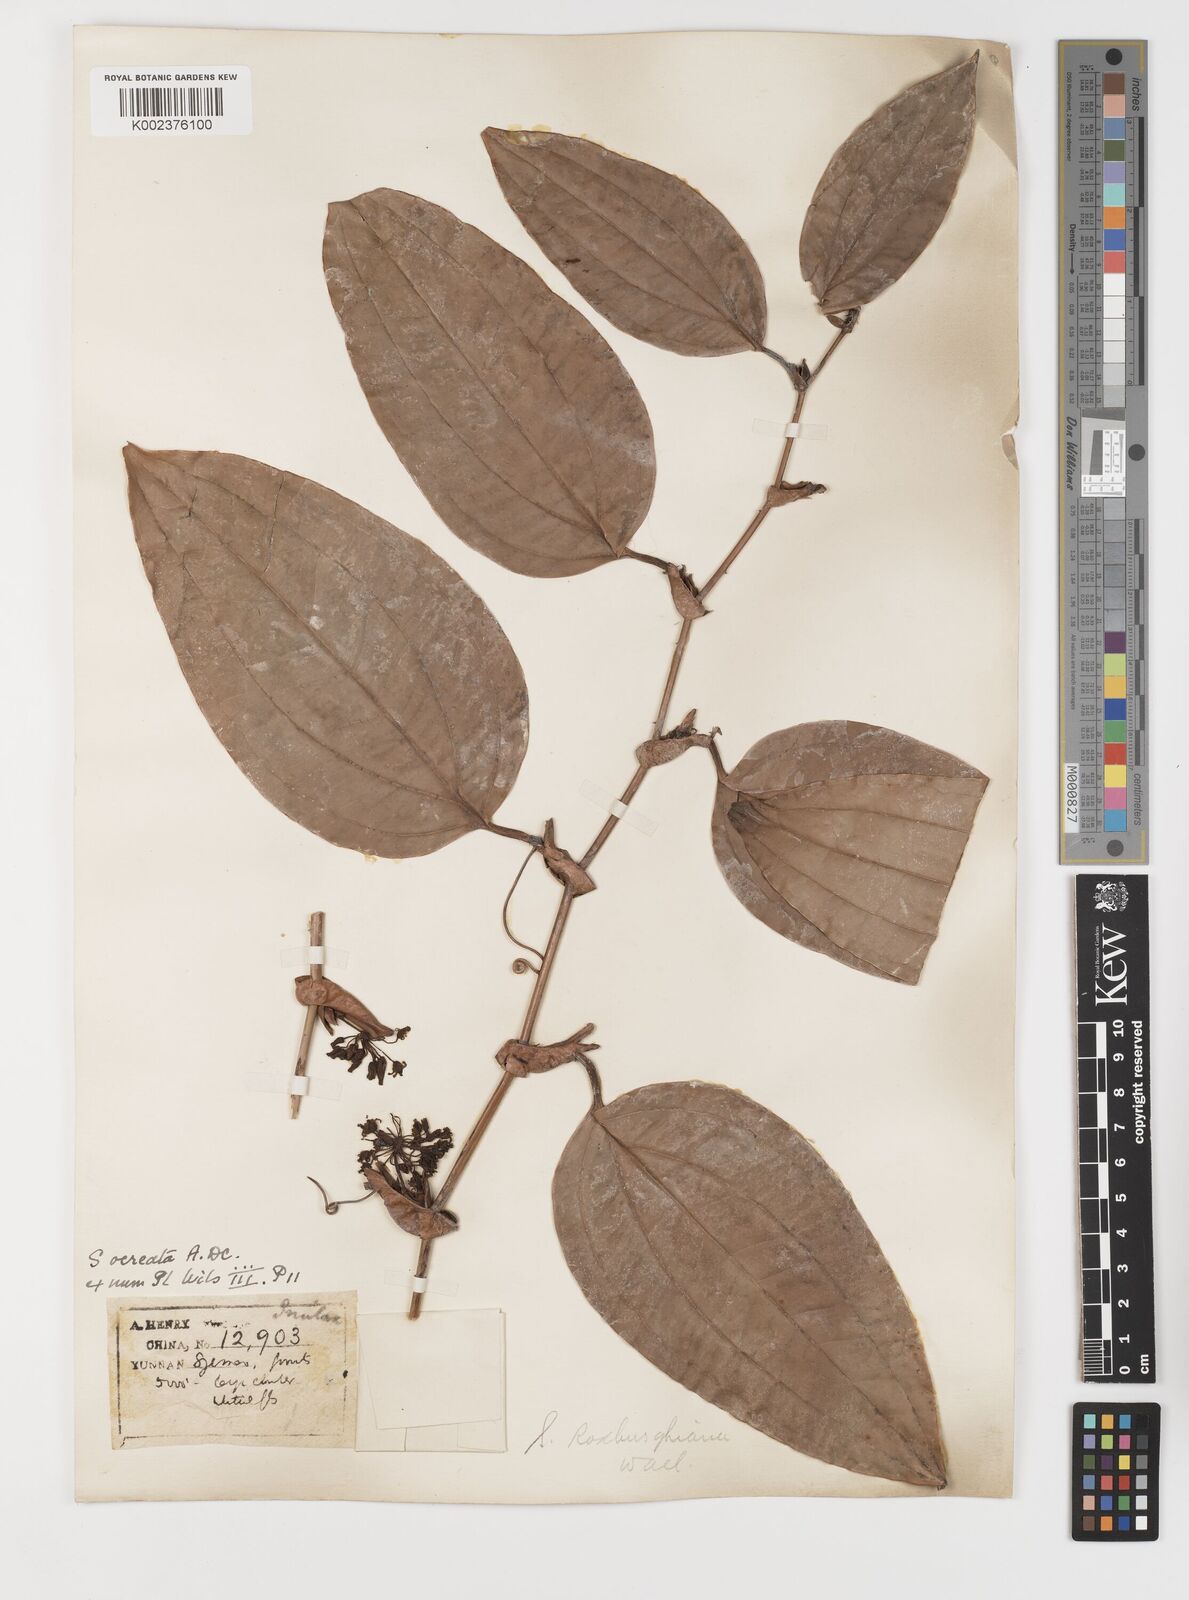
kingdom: Plantae
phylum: Tracheophyta
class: Liliopsida
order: Liliales
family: Smilacaceae
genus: Smilax
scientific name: Smilax
